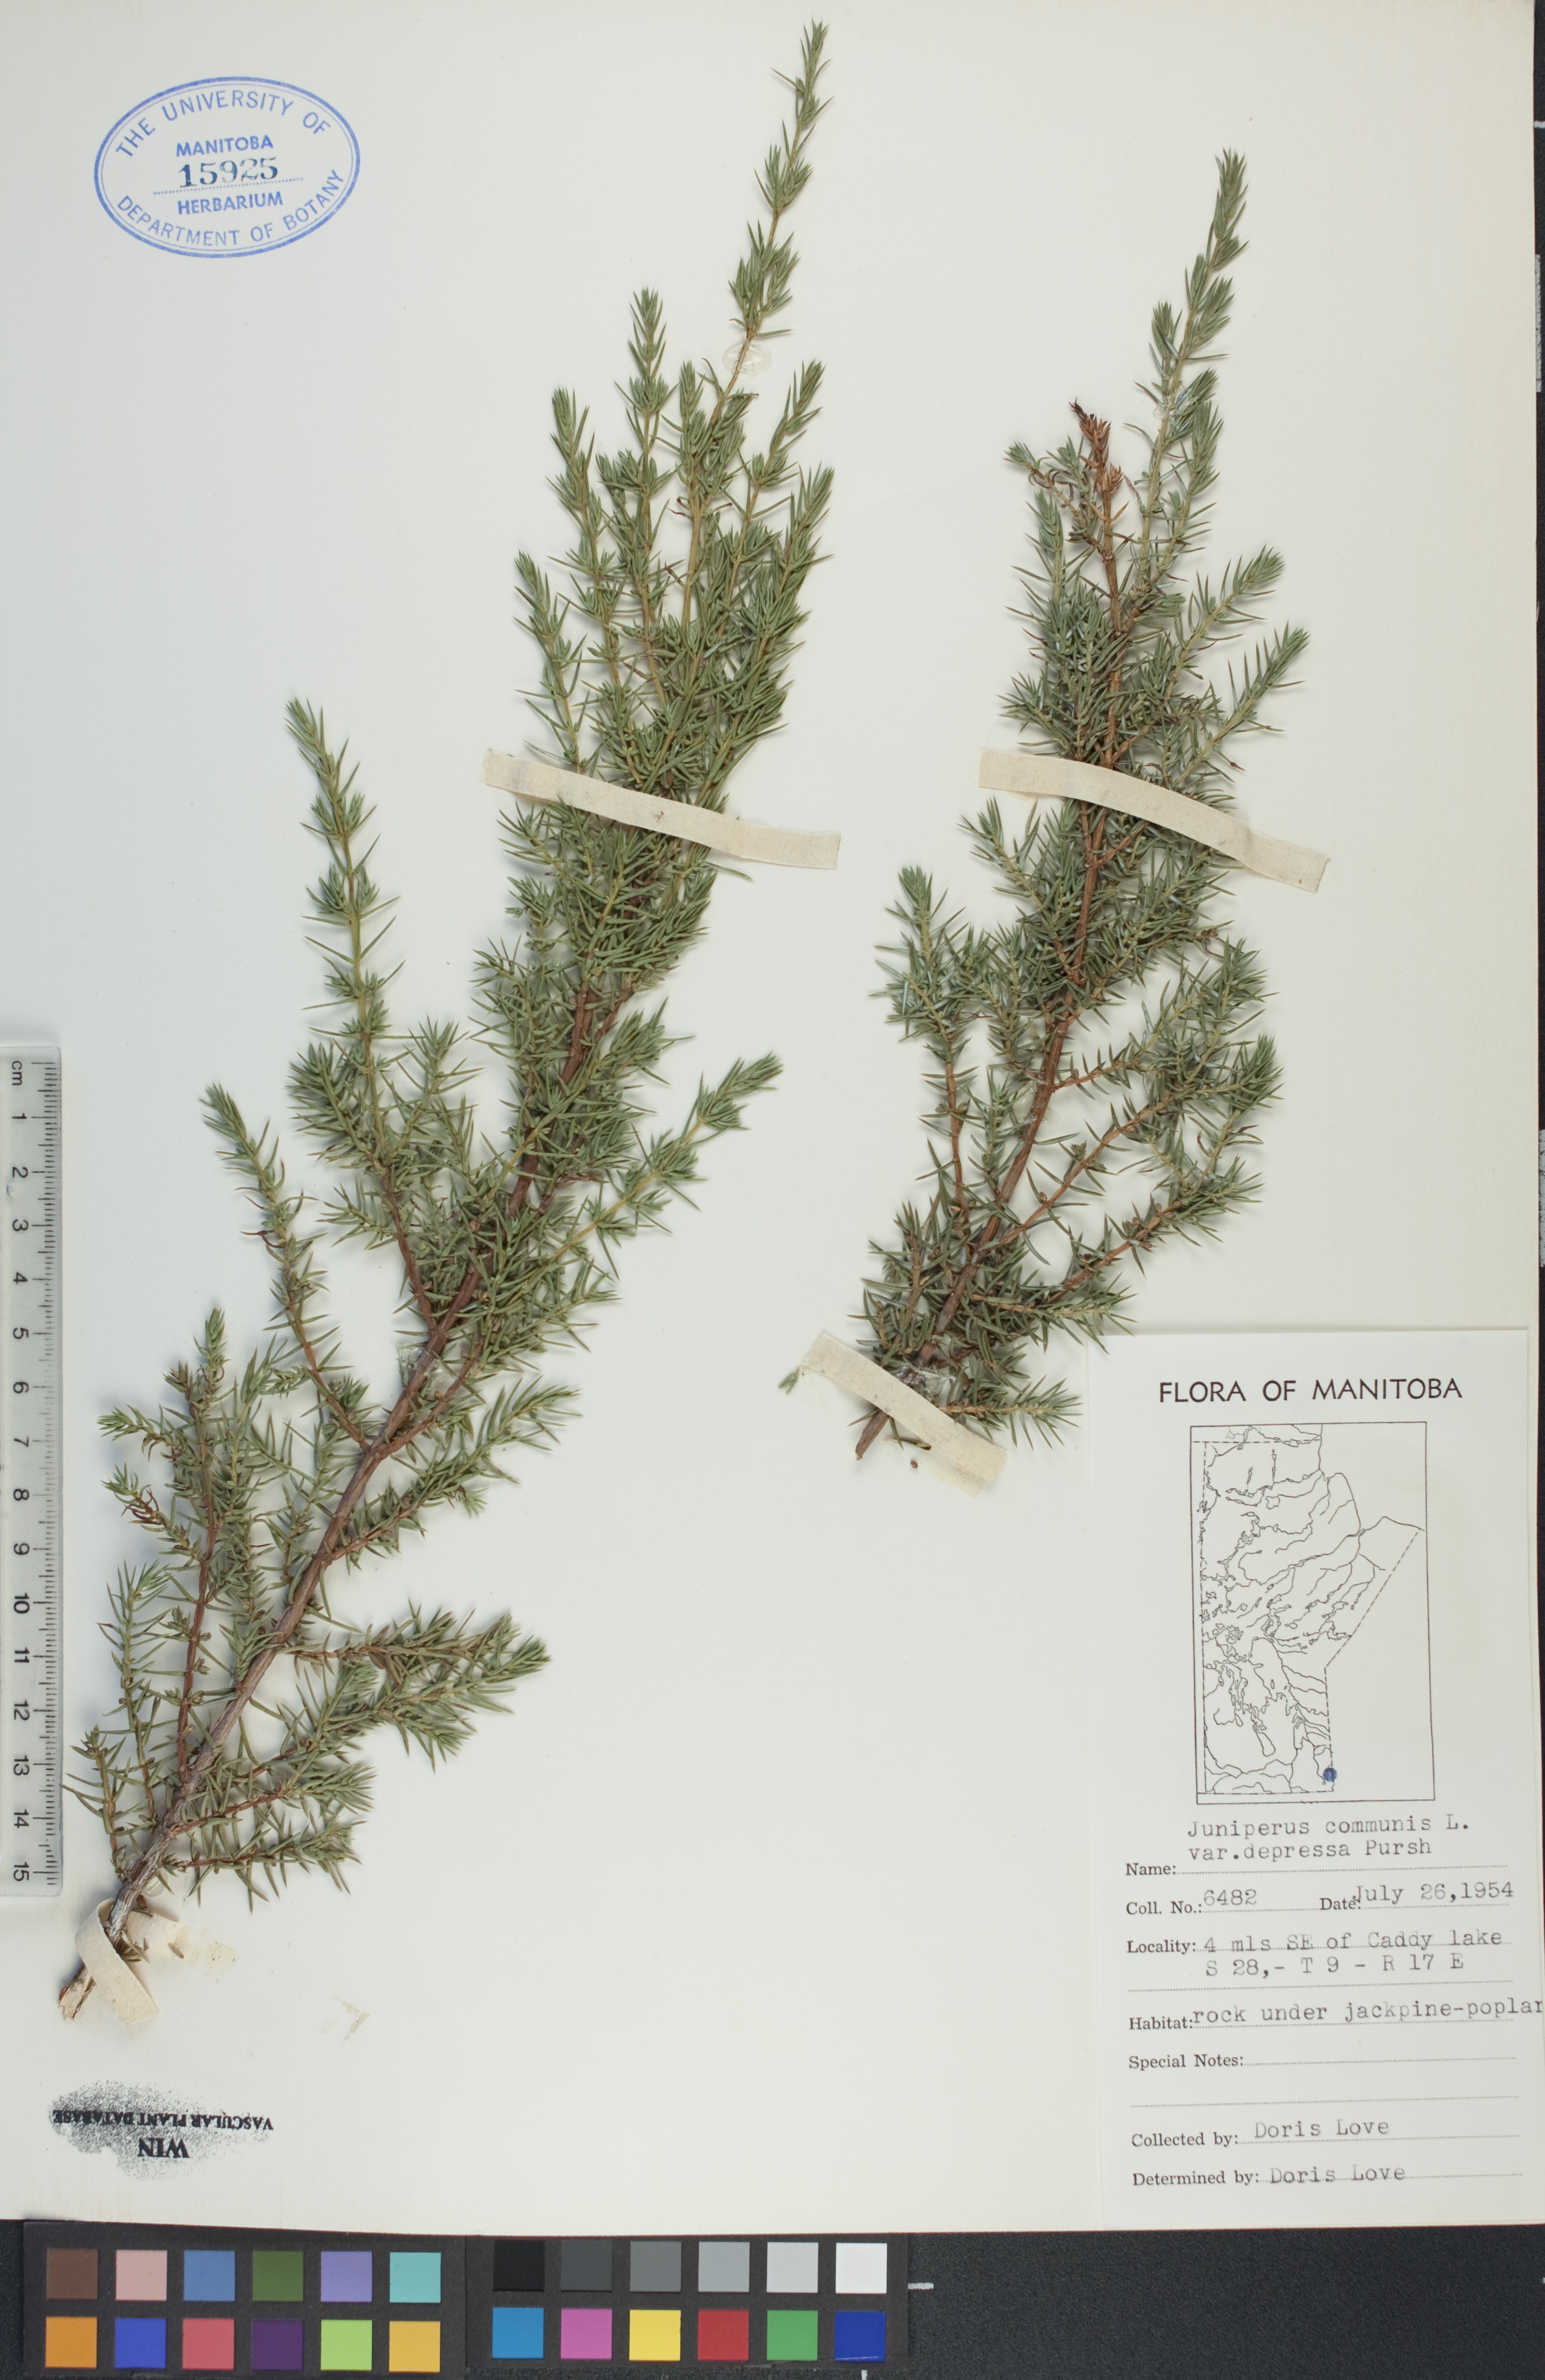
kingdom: Plantae
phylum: Tracheophyta
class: Pinopsida
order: Pinales
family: Cupressaceae
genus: Juniperus
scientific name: Juniperus communis
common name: Common juniper
